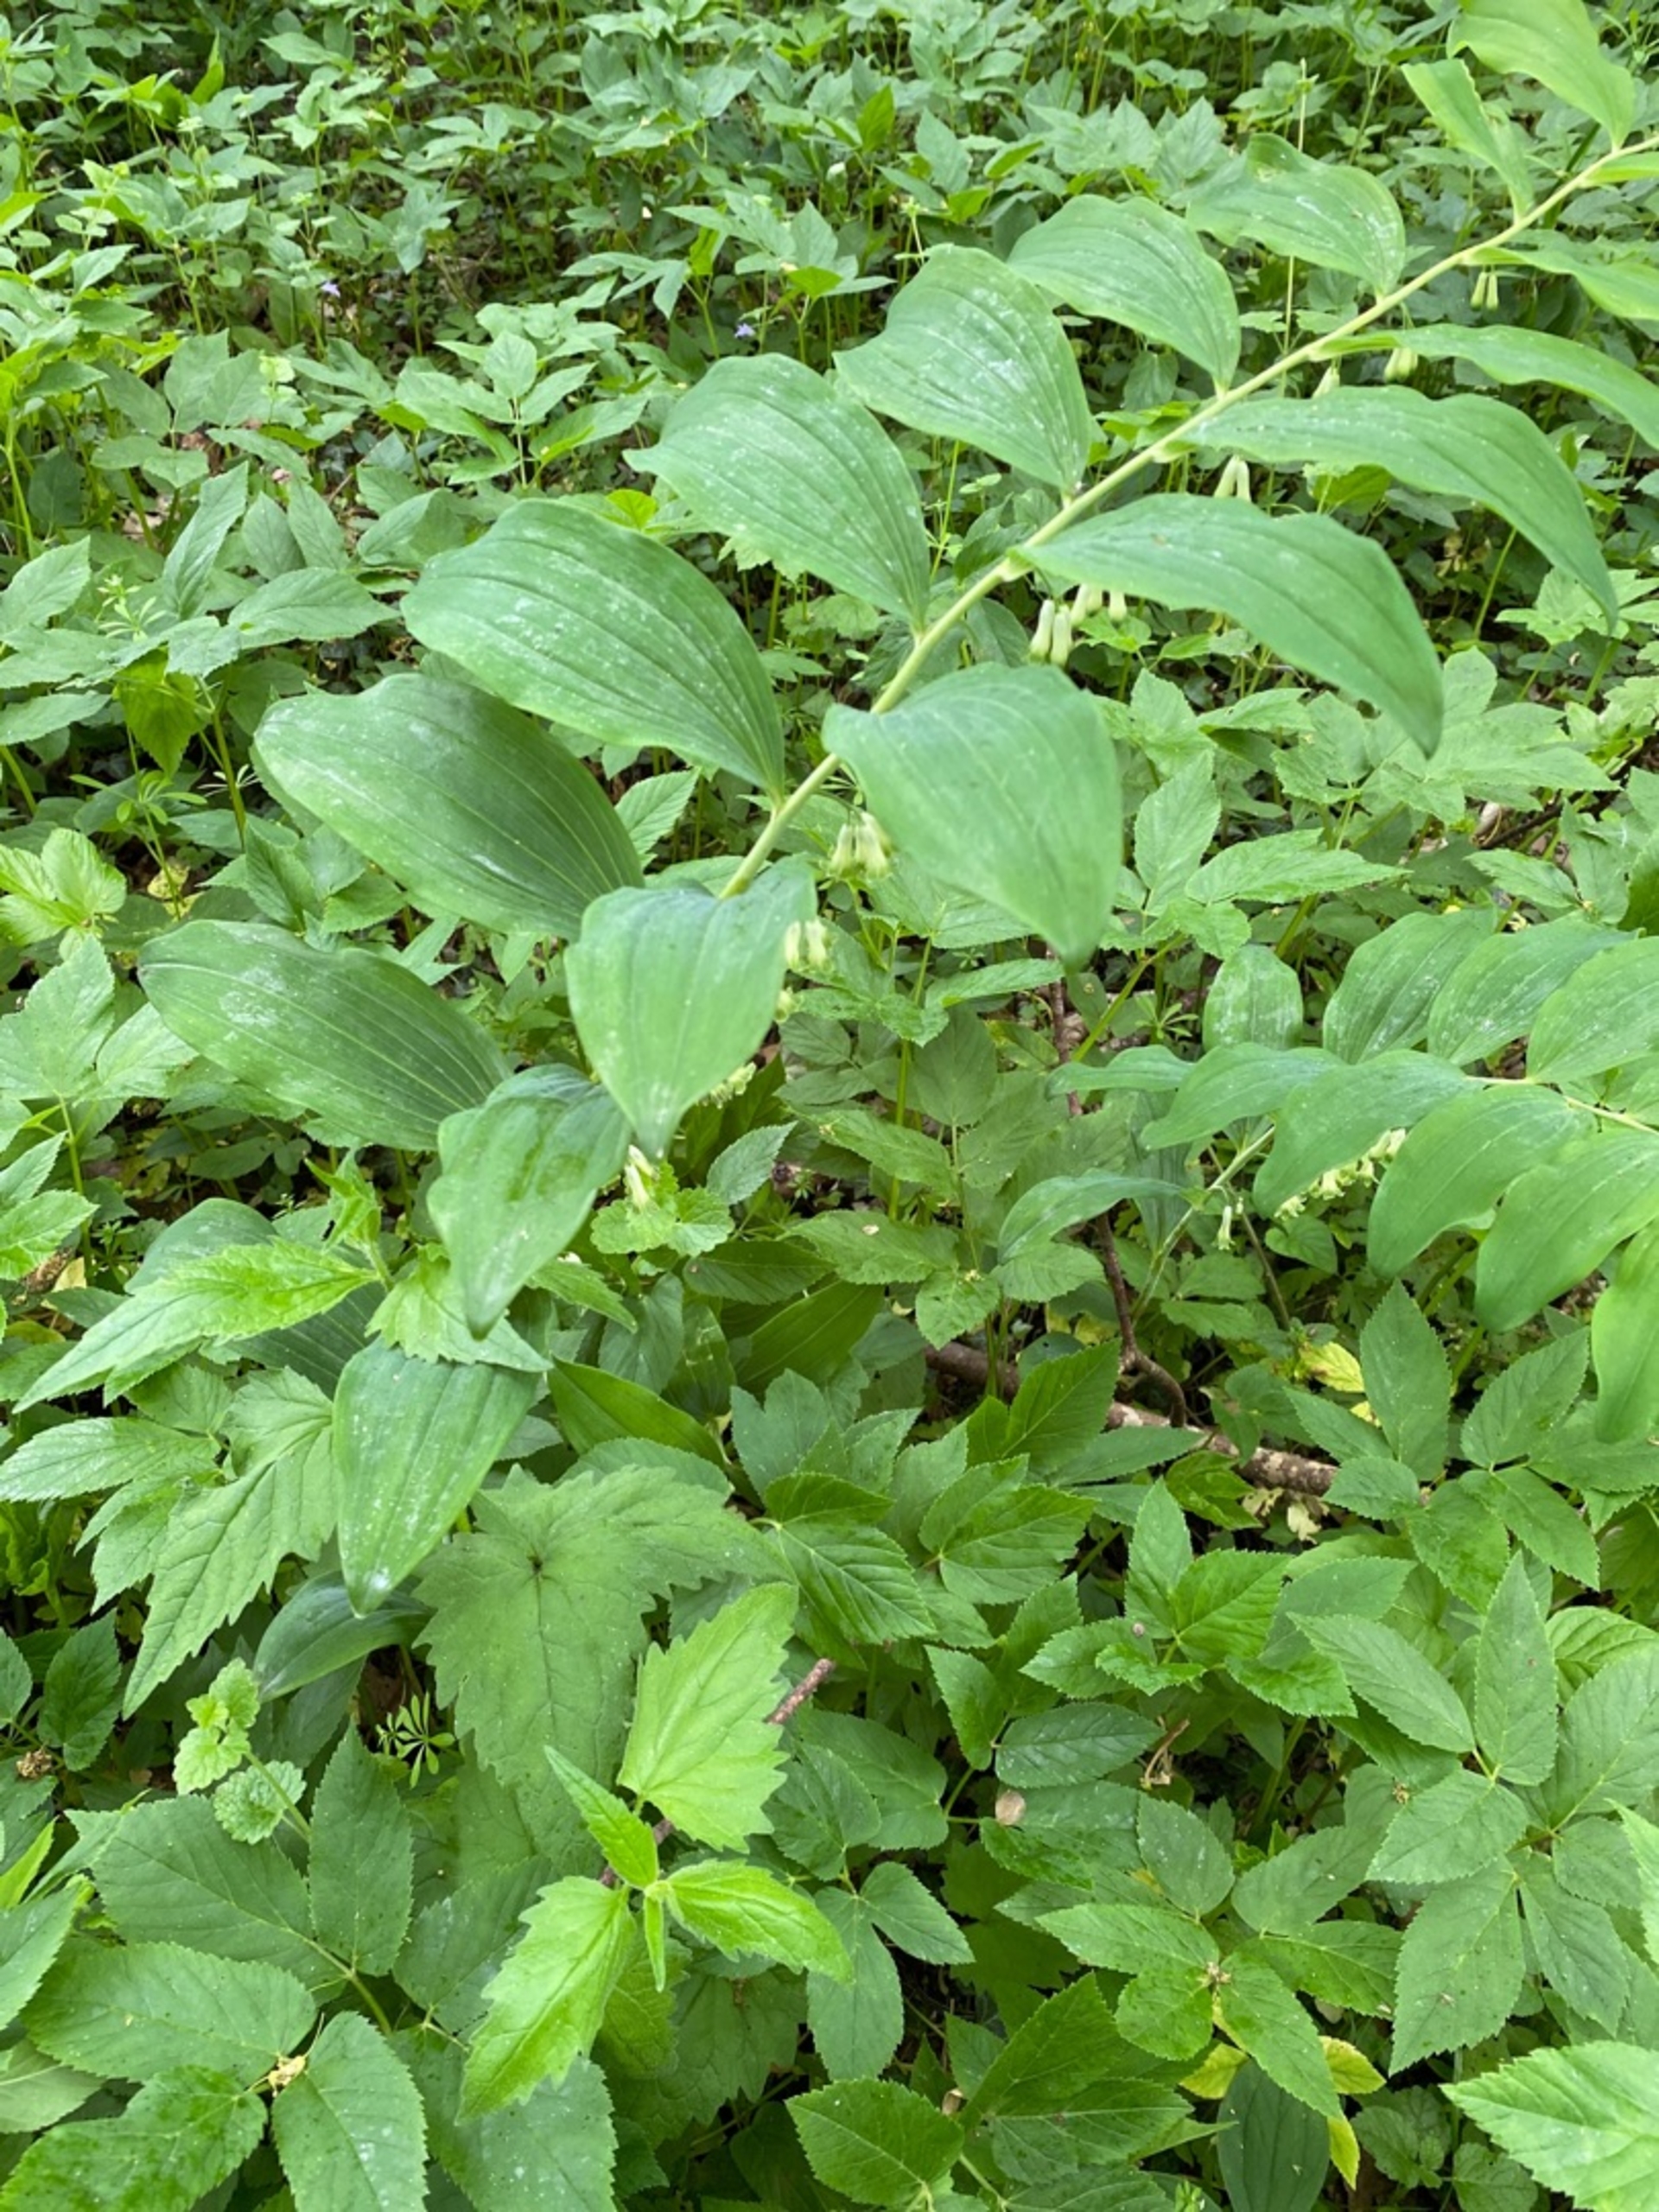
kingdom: Plantae
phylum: Tracheophyta
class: Liliopsida
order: Asparagales
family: Asparagaceae
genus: Polygonatum
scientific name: Polygonatum multiflorum
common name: Stor konval
